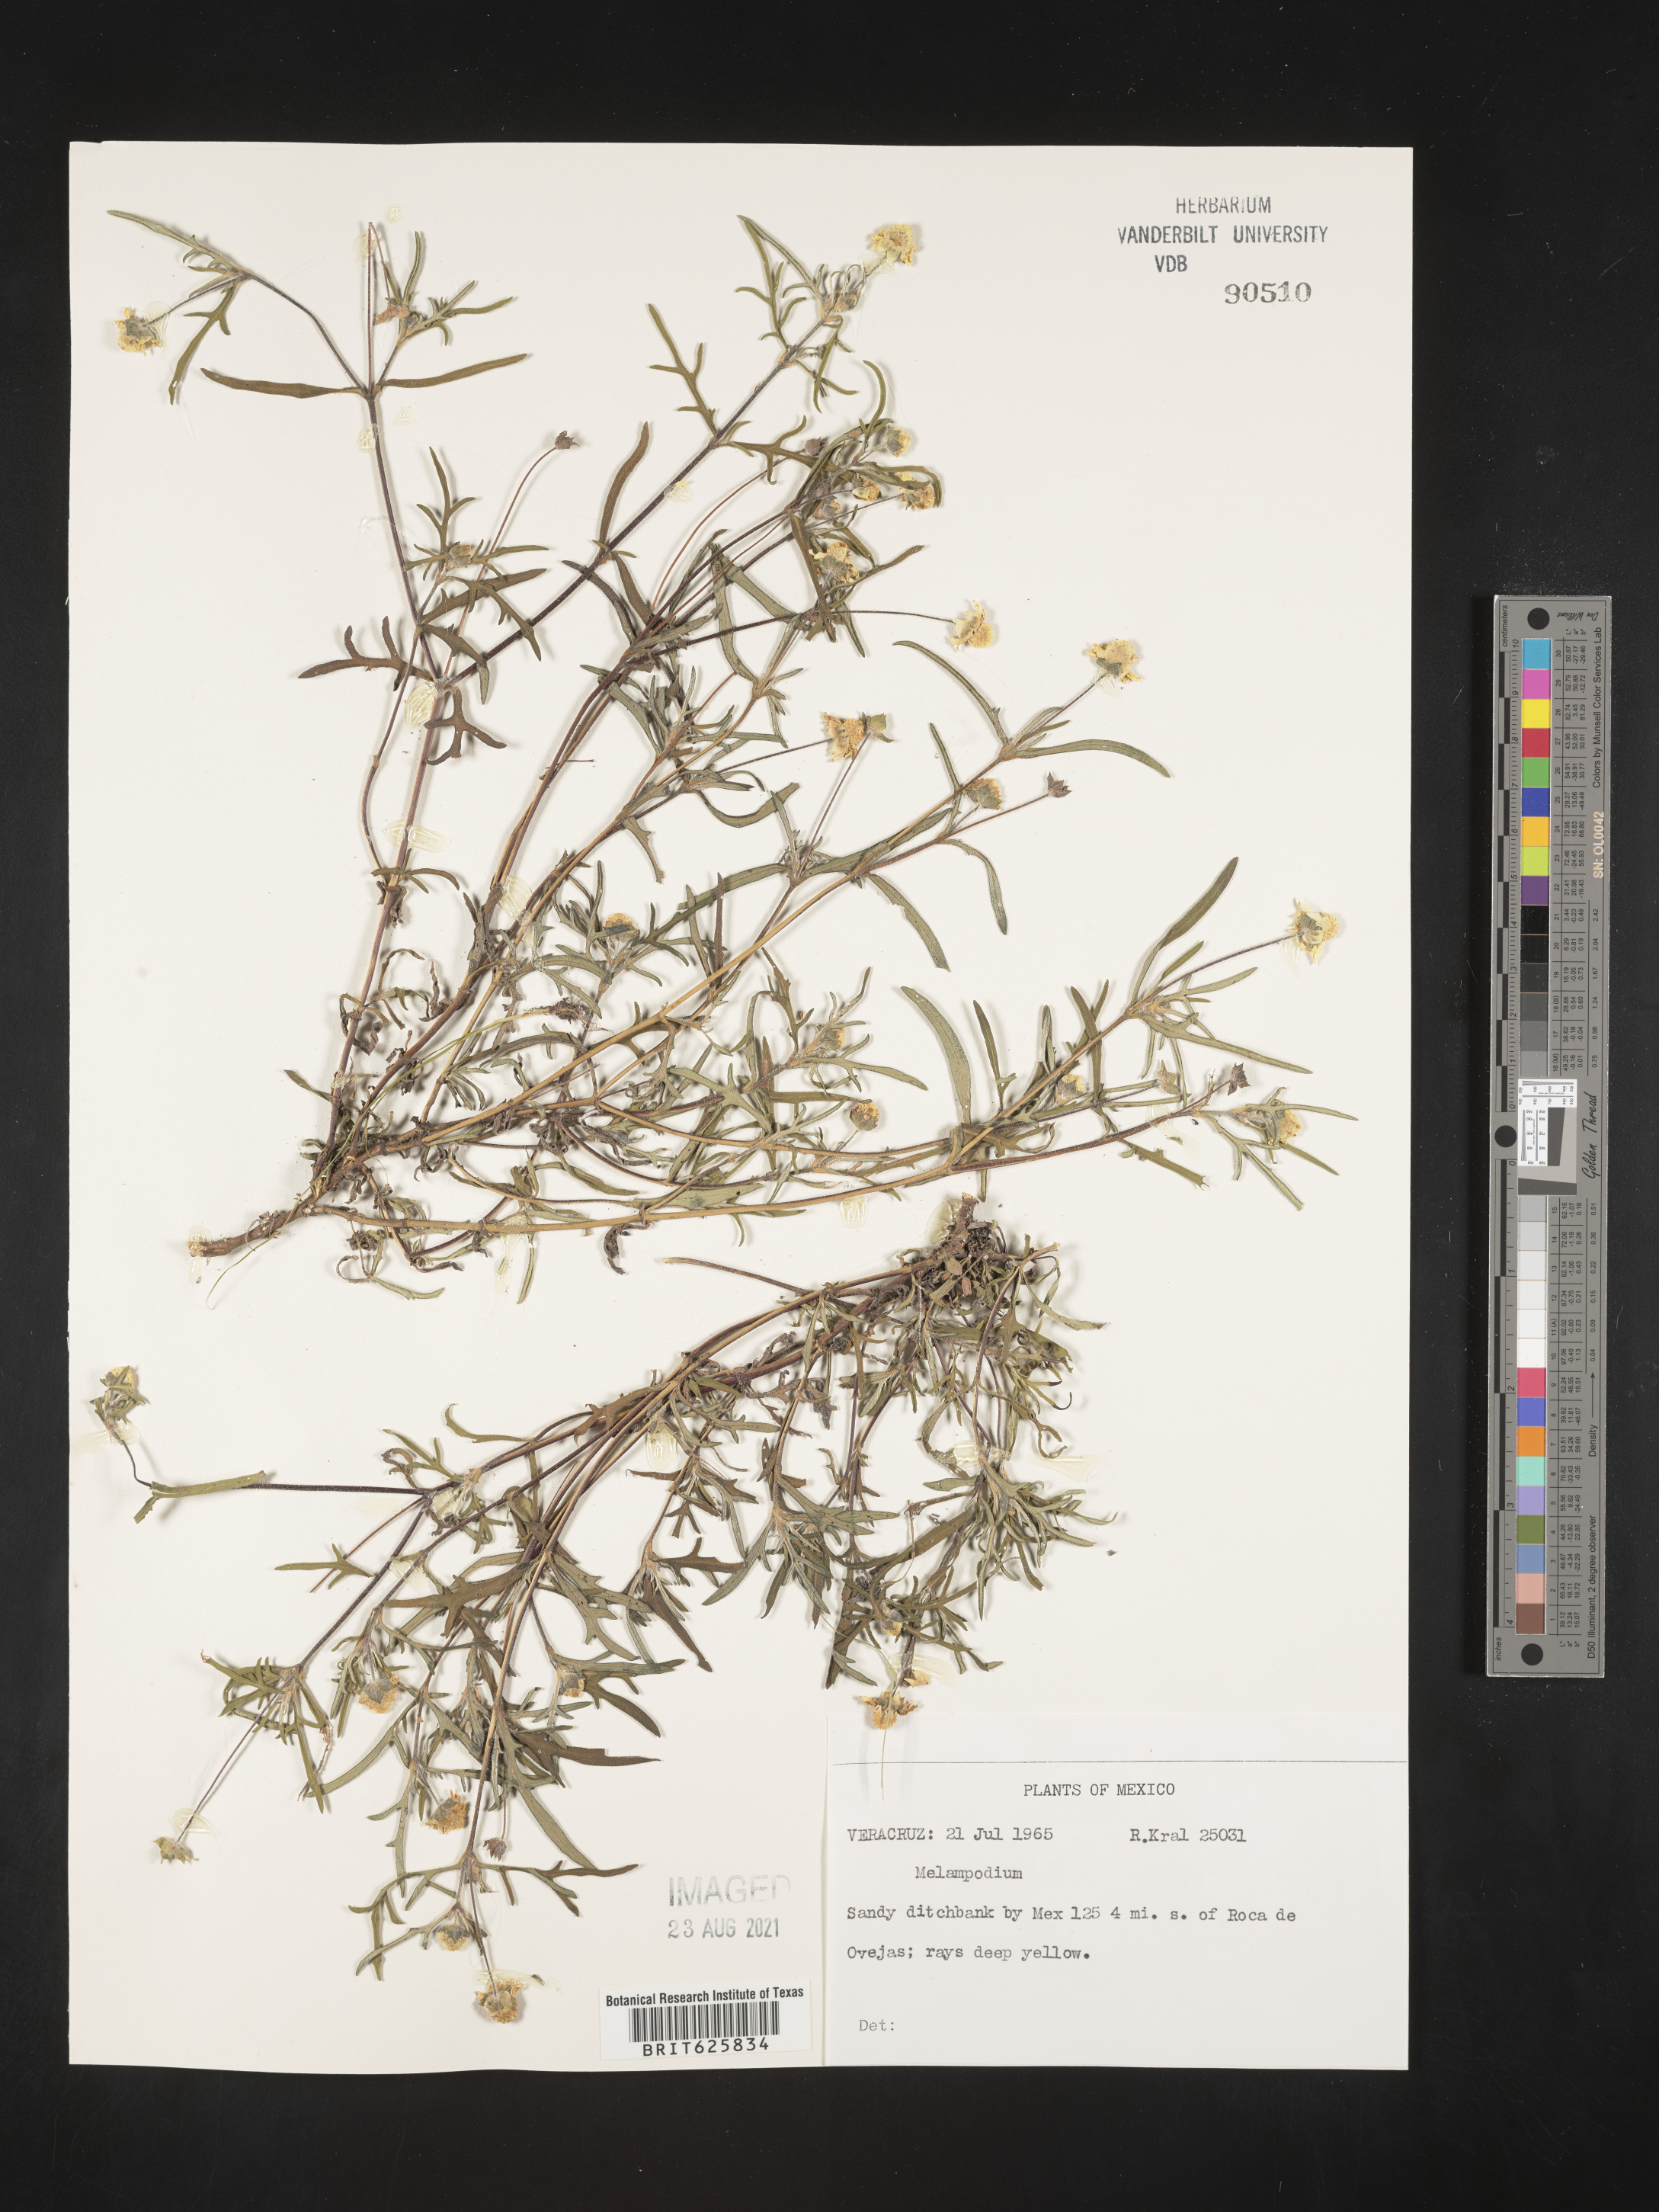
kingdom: Plantae
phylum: Tracheophyta
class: Magnoliopsida
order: Asterales
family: Asteraceae
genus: Melampodium
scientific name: Melampodium
